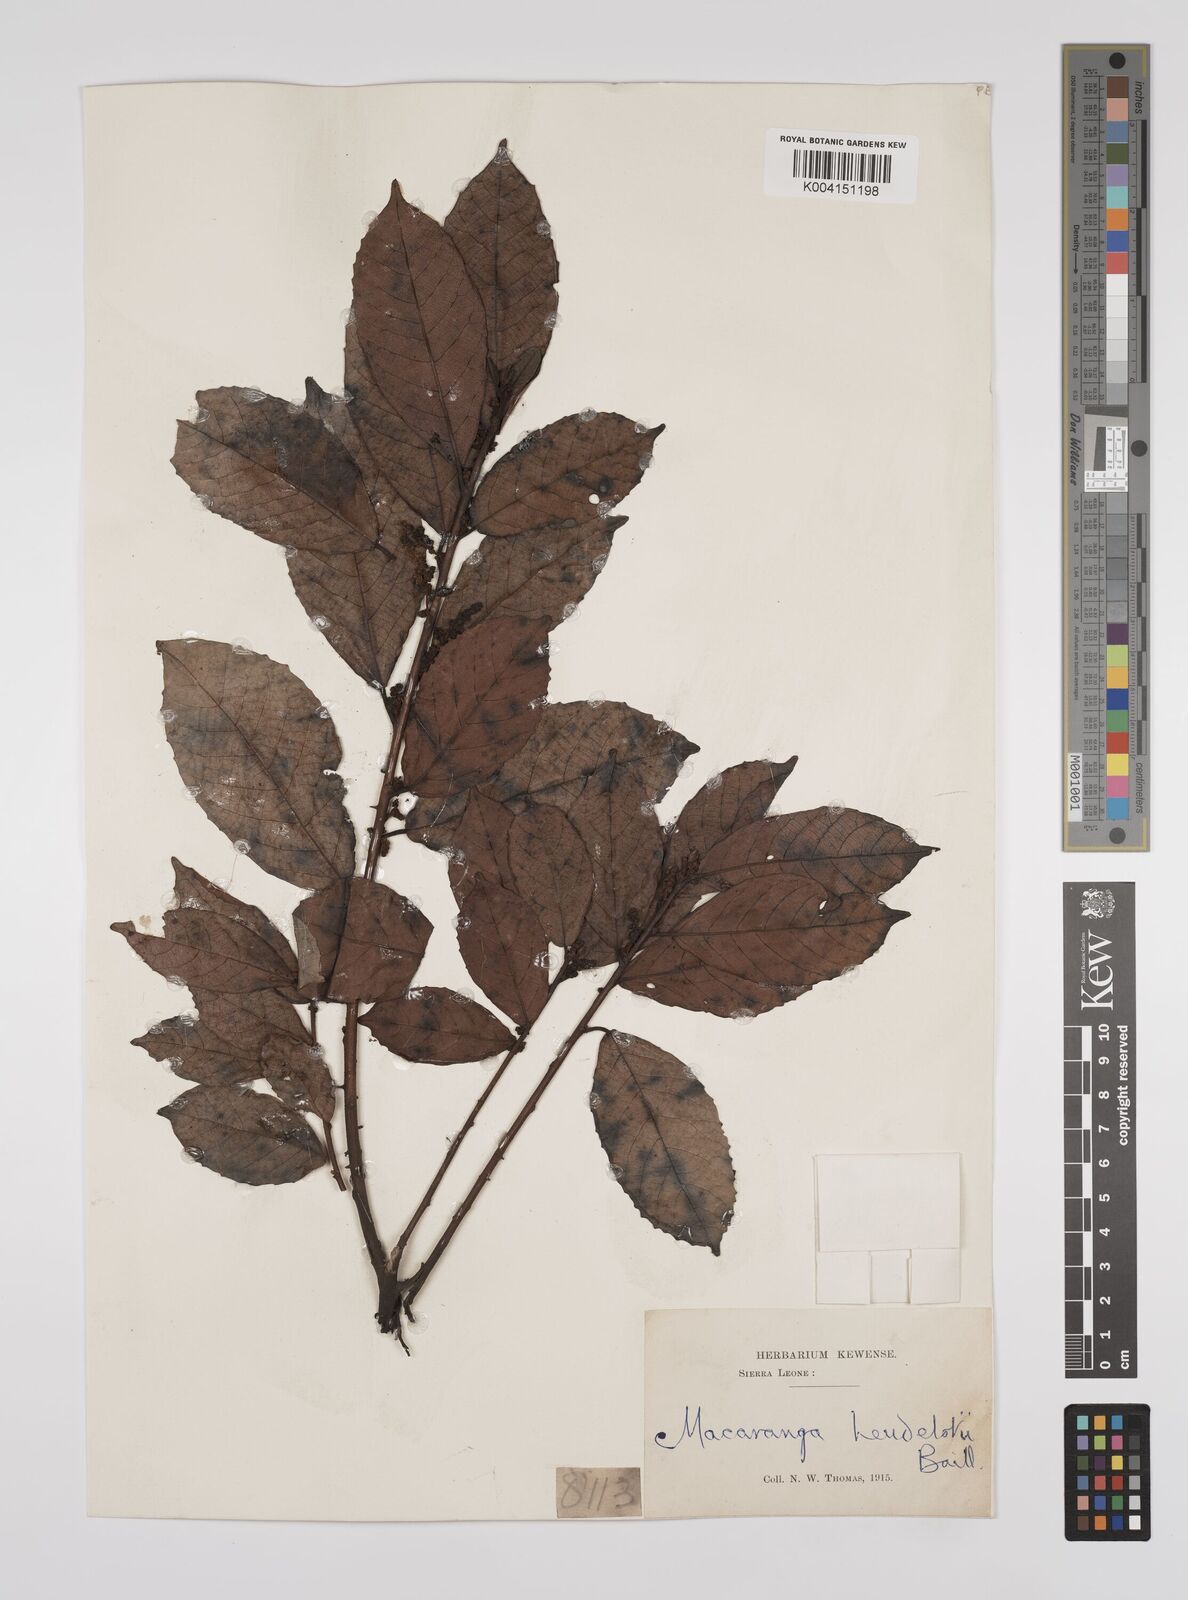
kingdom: Plantae
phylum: Tracheophyta
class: Magnoliopsida
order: Malpighiales
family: Euphorbiaceae
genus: Macaranga
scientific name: Macaranga heudelotii
